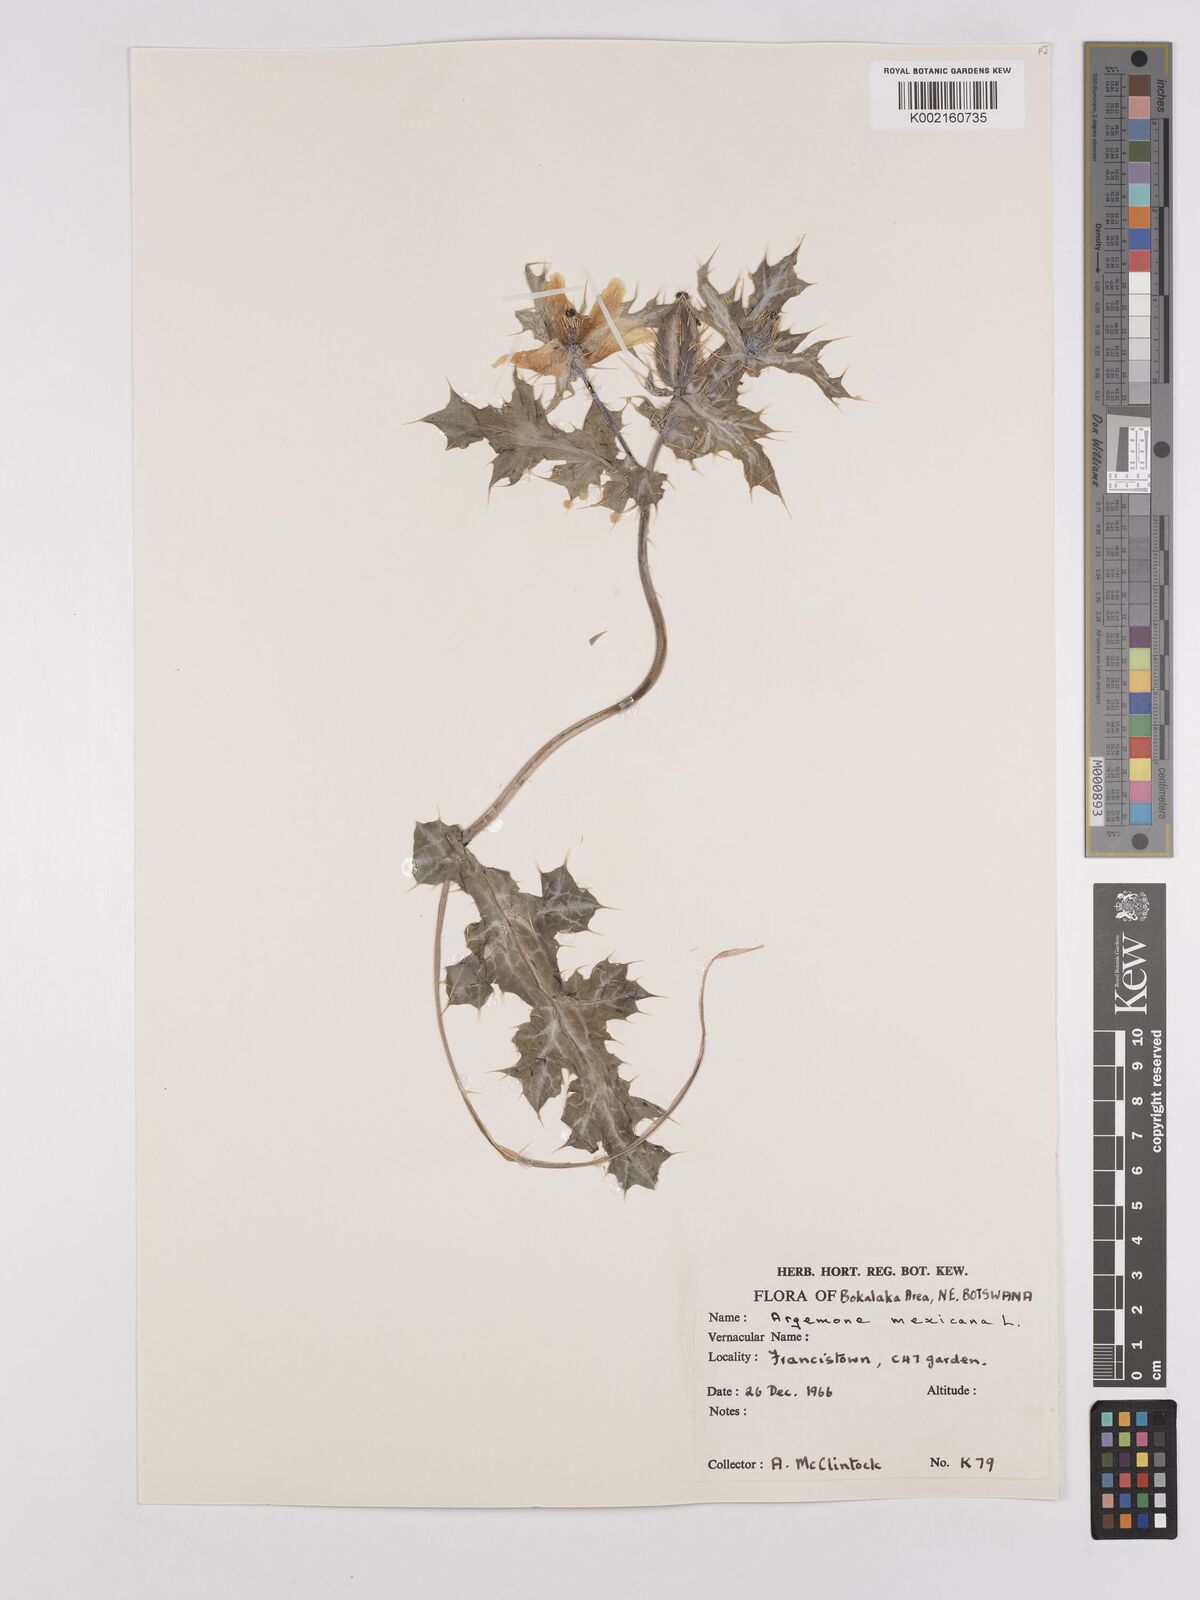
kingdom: Plantae
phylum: Tracheophyta
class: Magnoliopsida
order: Ranunculales
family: Papaveraceae
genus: Argemone
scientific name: Argemone mexicana
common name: Mexican poppy
